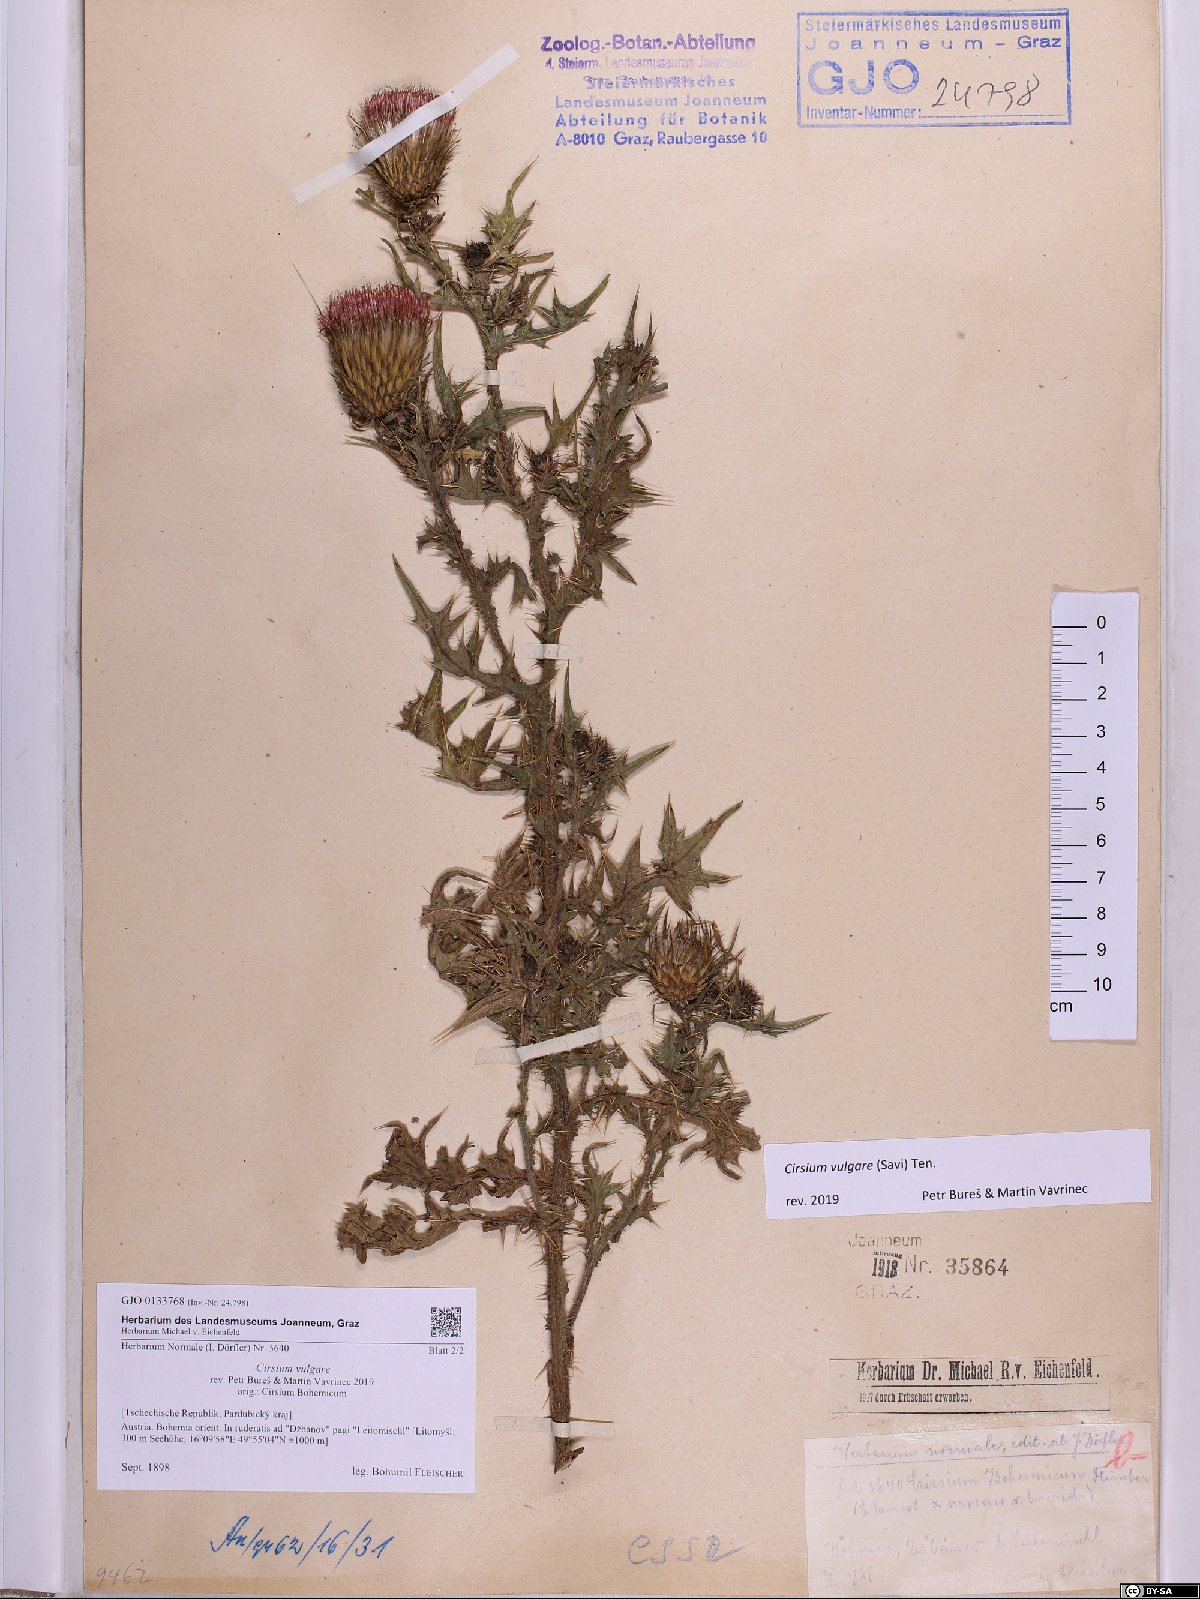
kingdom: Plantae
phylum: Tracheophyta
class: Magnoliopsida
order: Asterales
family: Asteraceae
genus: Cirsium
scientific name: Cirsium vulgare
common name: Bull thistle
